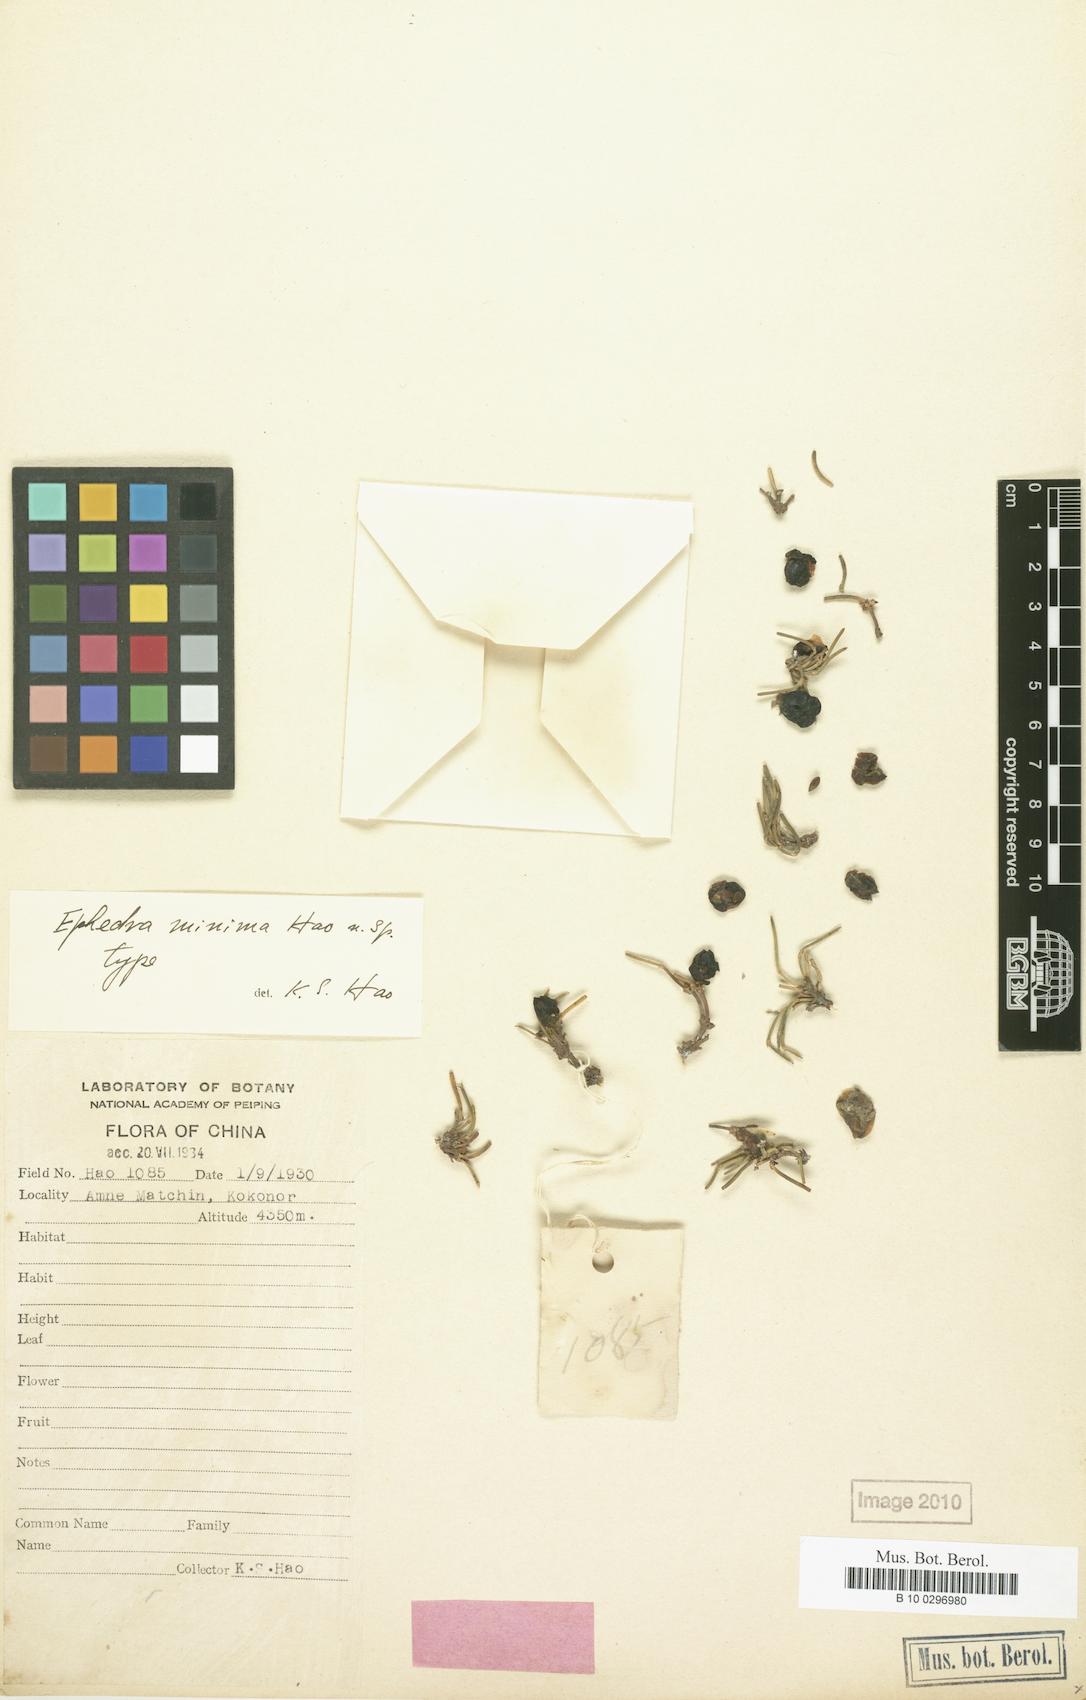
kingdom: Plantae
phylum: Tracheophyta
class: Gnetopsida
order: Ephedrales
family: Ephedraceae
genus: Ephedra
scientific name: Ephedra monosperma
